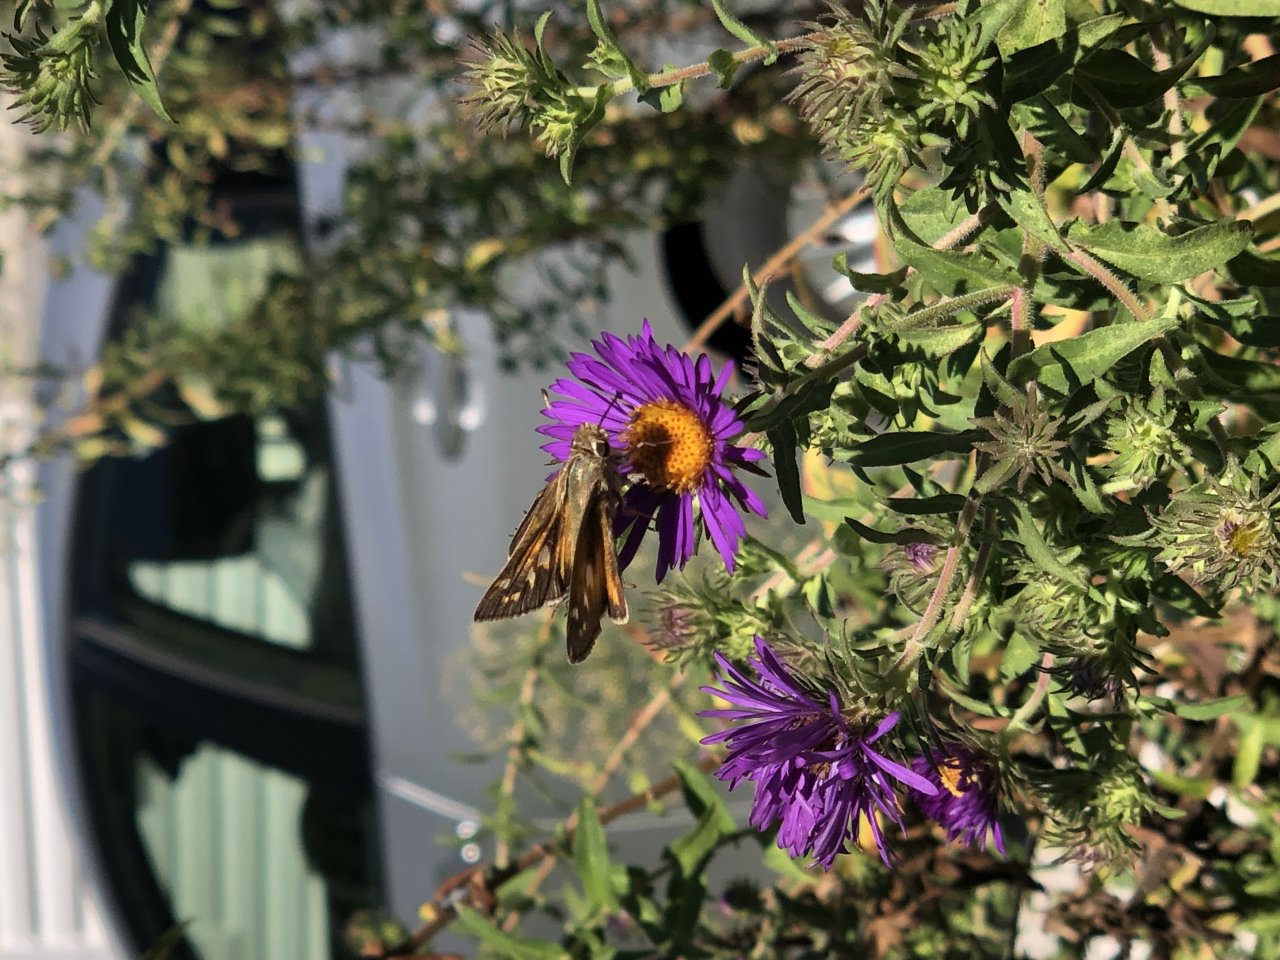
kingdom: Animalia
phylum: Arthropoda
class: Insecta
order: Lepidoptera
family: Hesperiidae
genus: Atalopedes
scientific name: Atalopedes campestris
